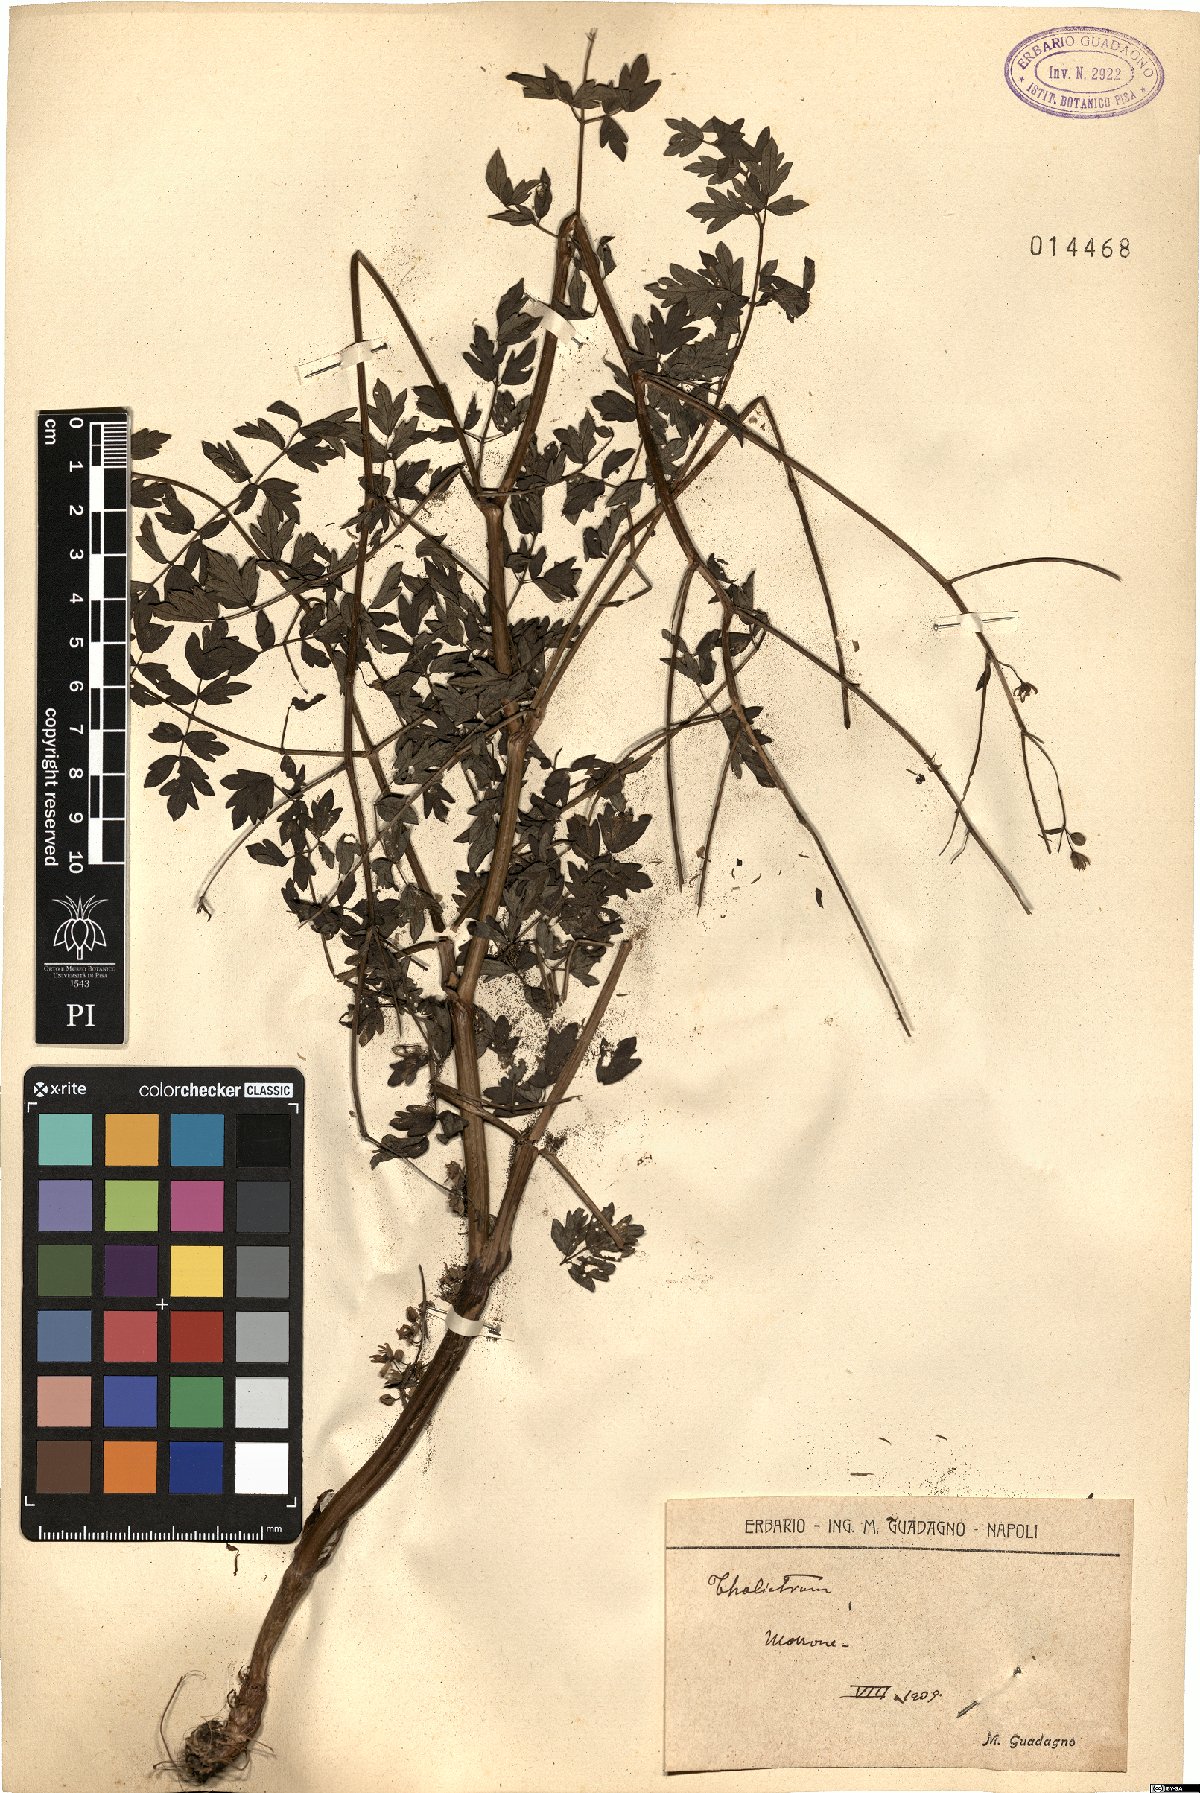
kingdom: Plantae
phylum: Tracheophyta
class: Magnoliopsida
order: Ranunculales
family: Ranunculaceae
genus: Thalictrum
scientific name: Thalictrum
